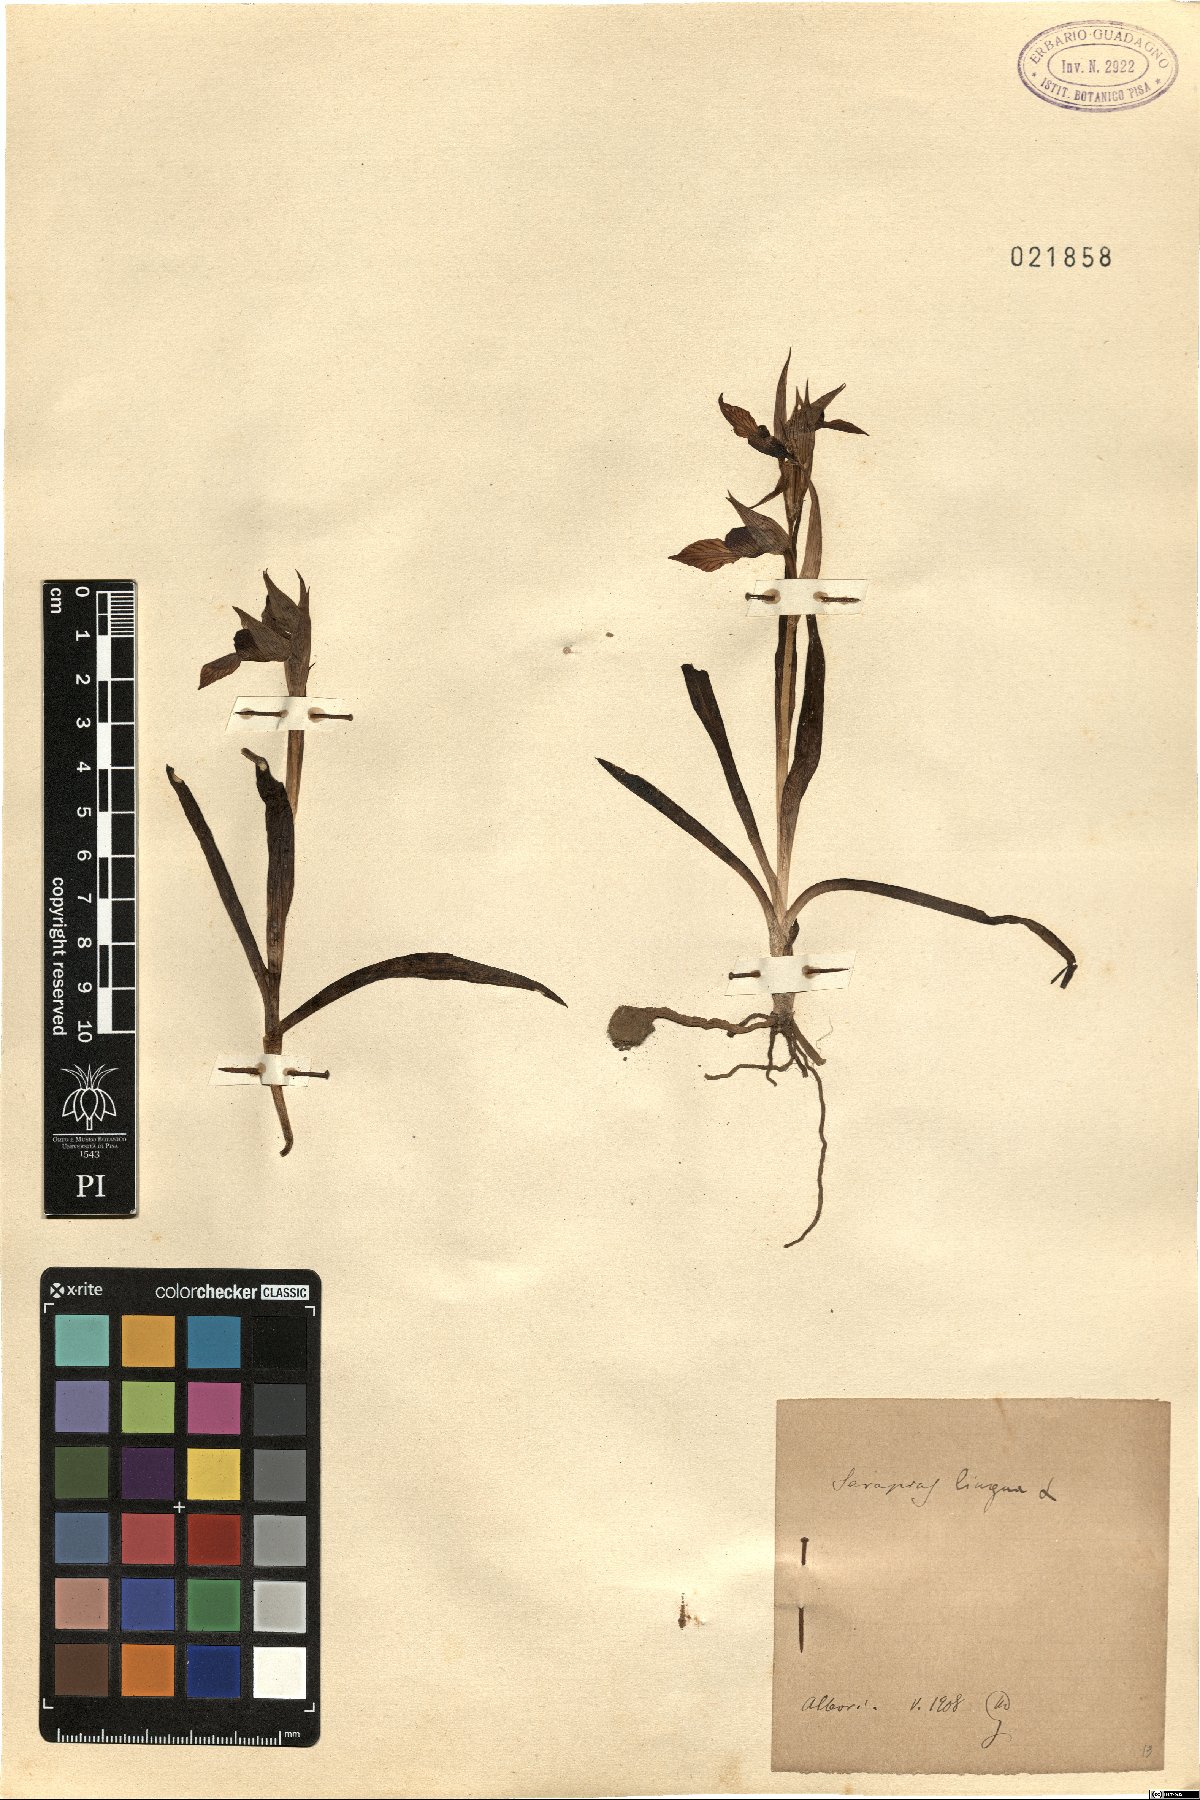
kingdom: Plantae
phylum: Tracheophyta
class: Liliopsida
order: Asparagales
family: Orchidaceae
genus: Serapias
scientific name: Serapias lingua
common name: Tongue-orchid
